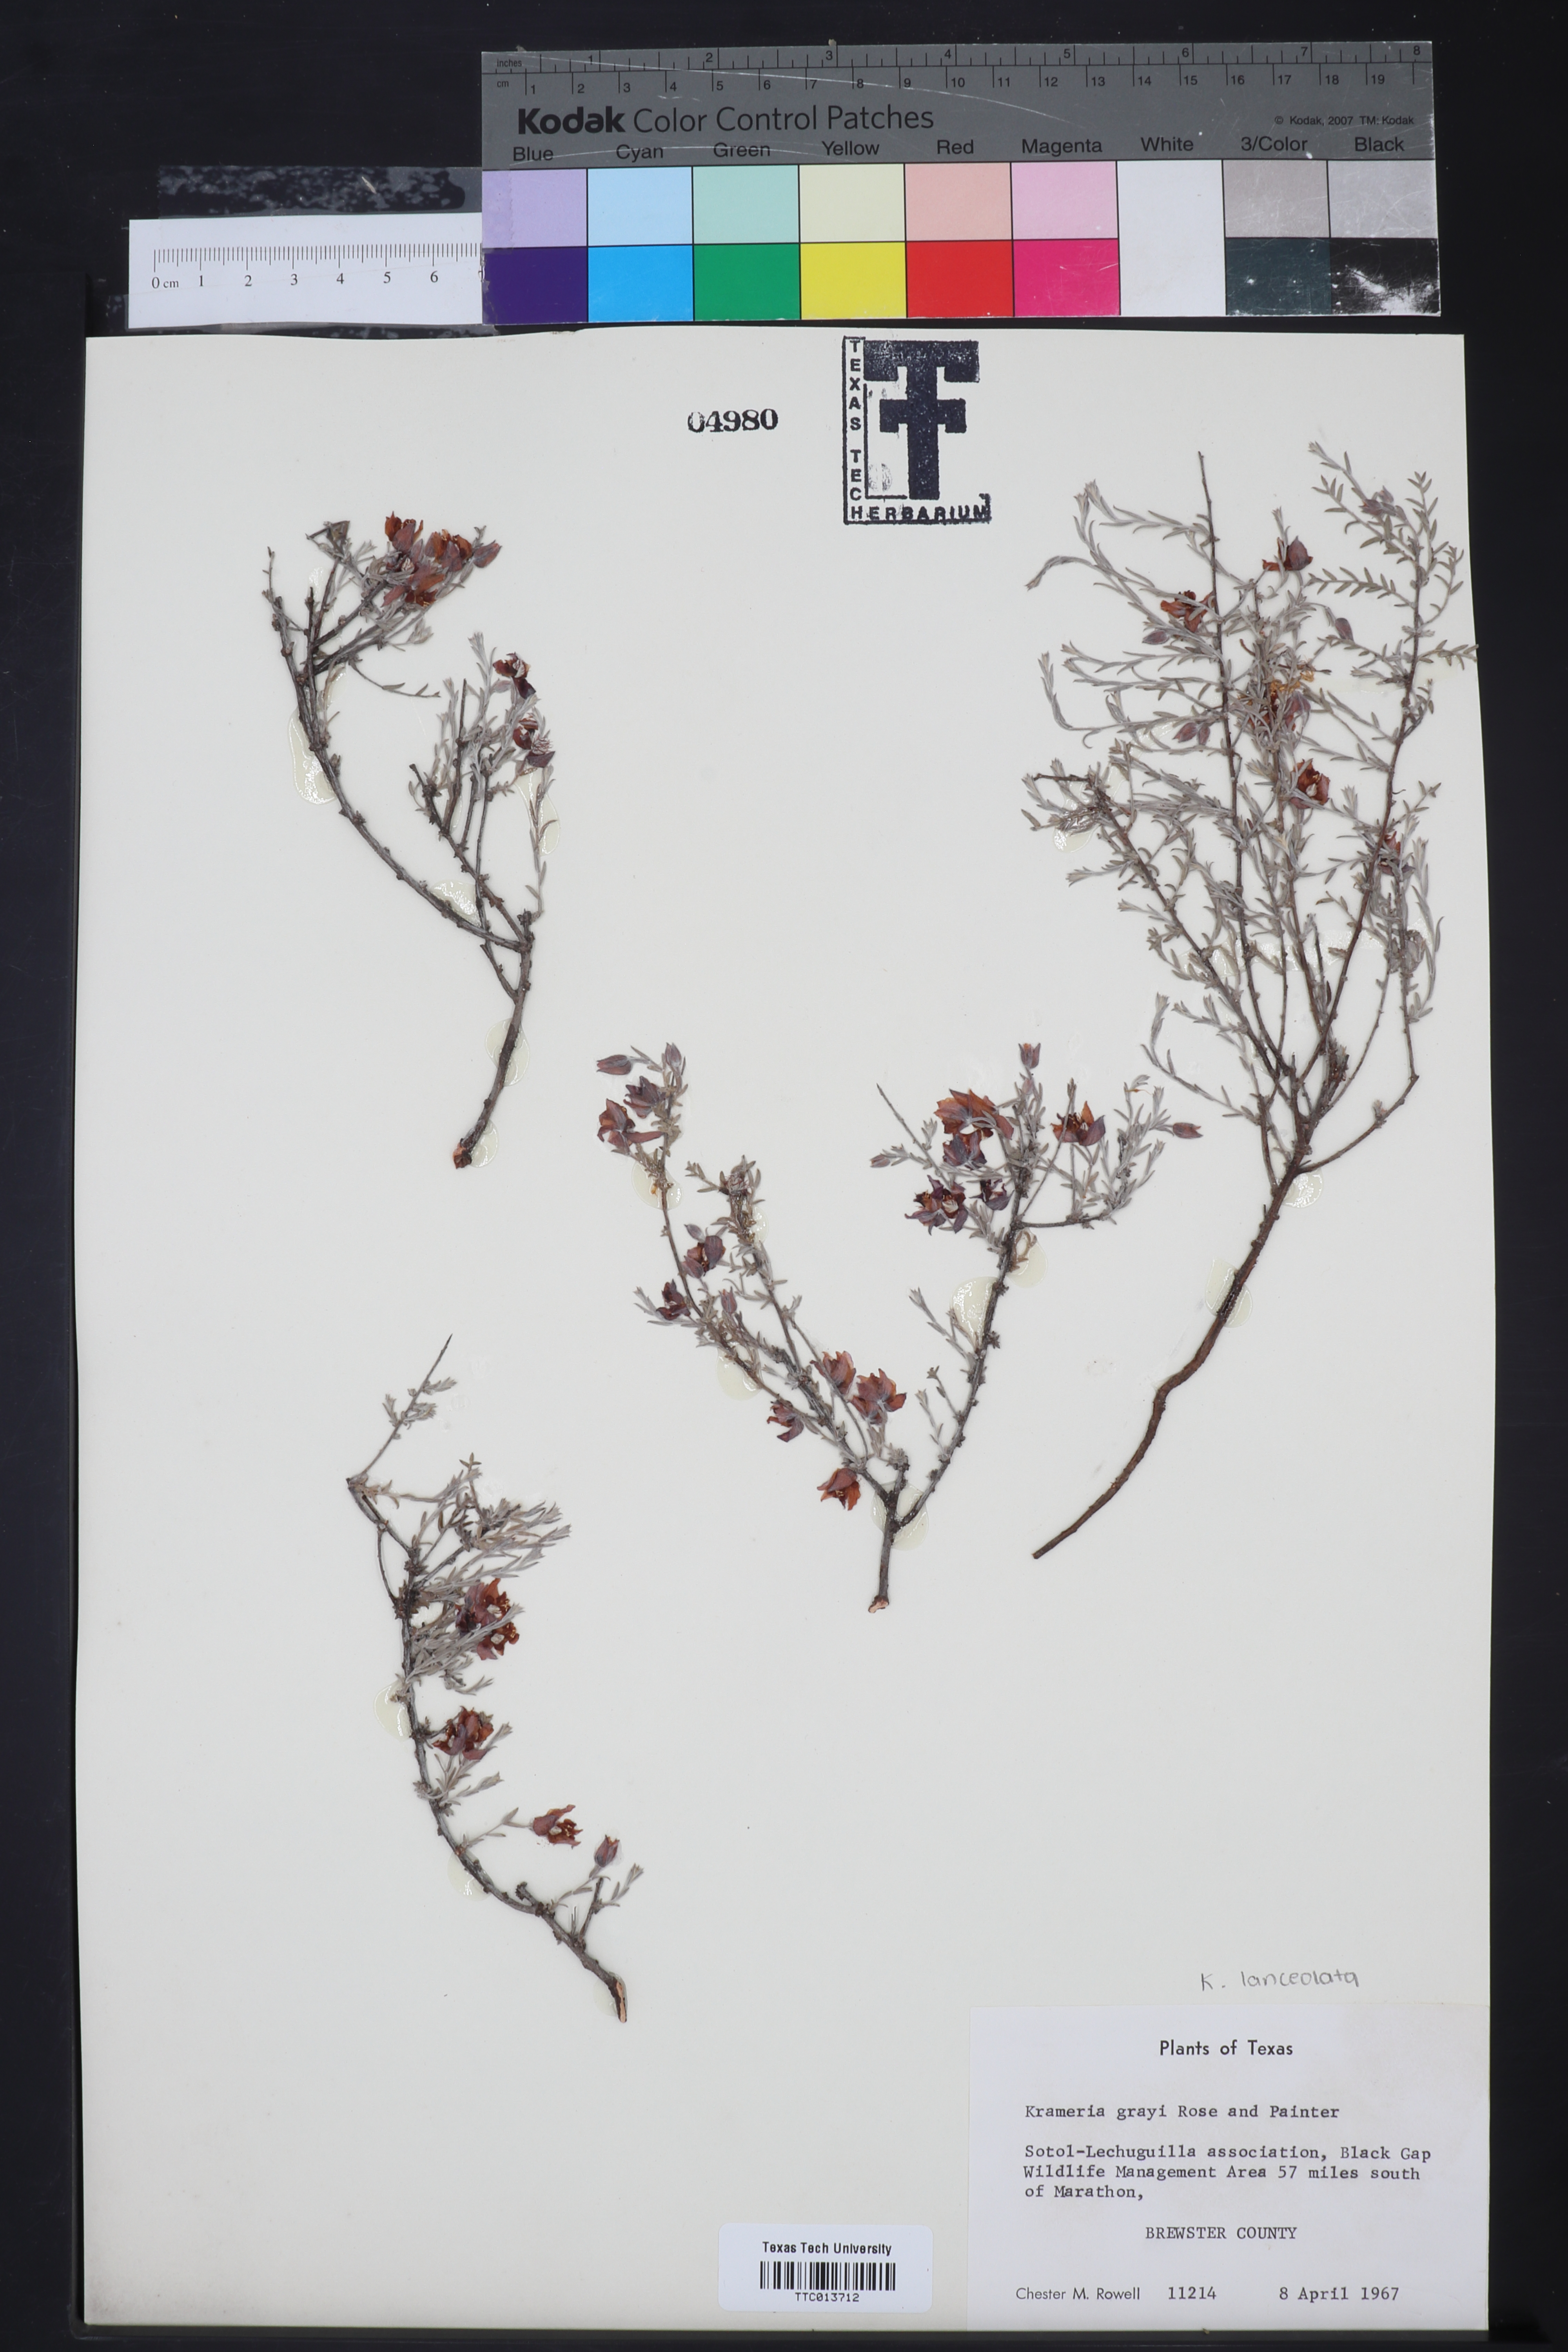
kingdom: Plantae
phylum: Tracheophyta
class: Magnoliopsida
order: Zygophyllales
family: Krameriaceae
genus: Krameria
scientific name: Krameria bicolor
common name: White ratany
